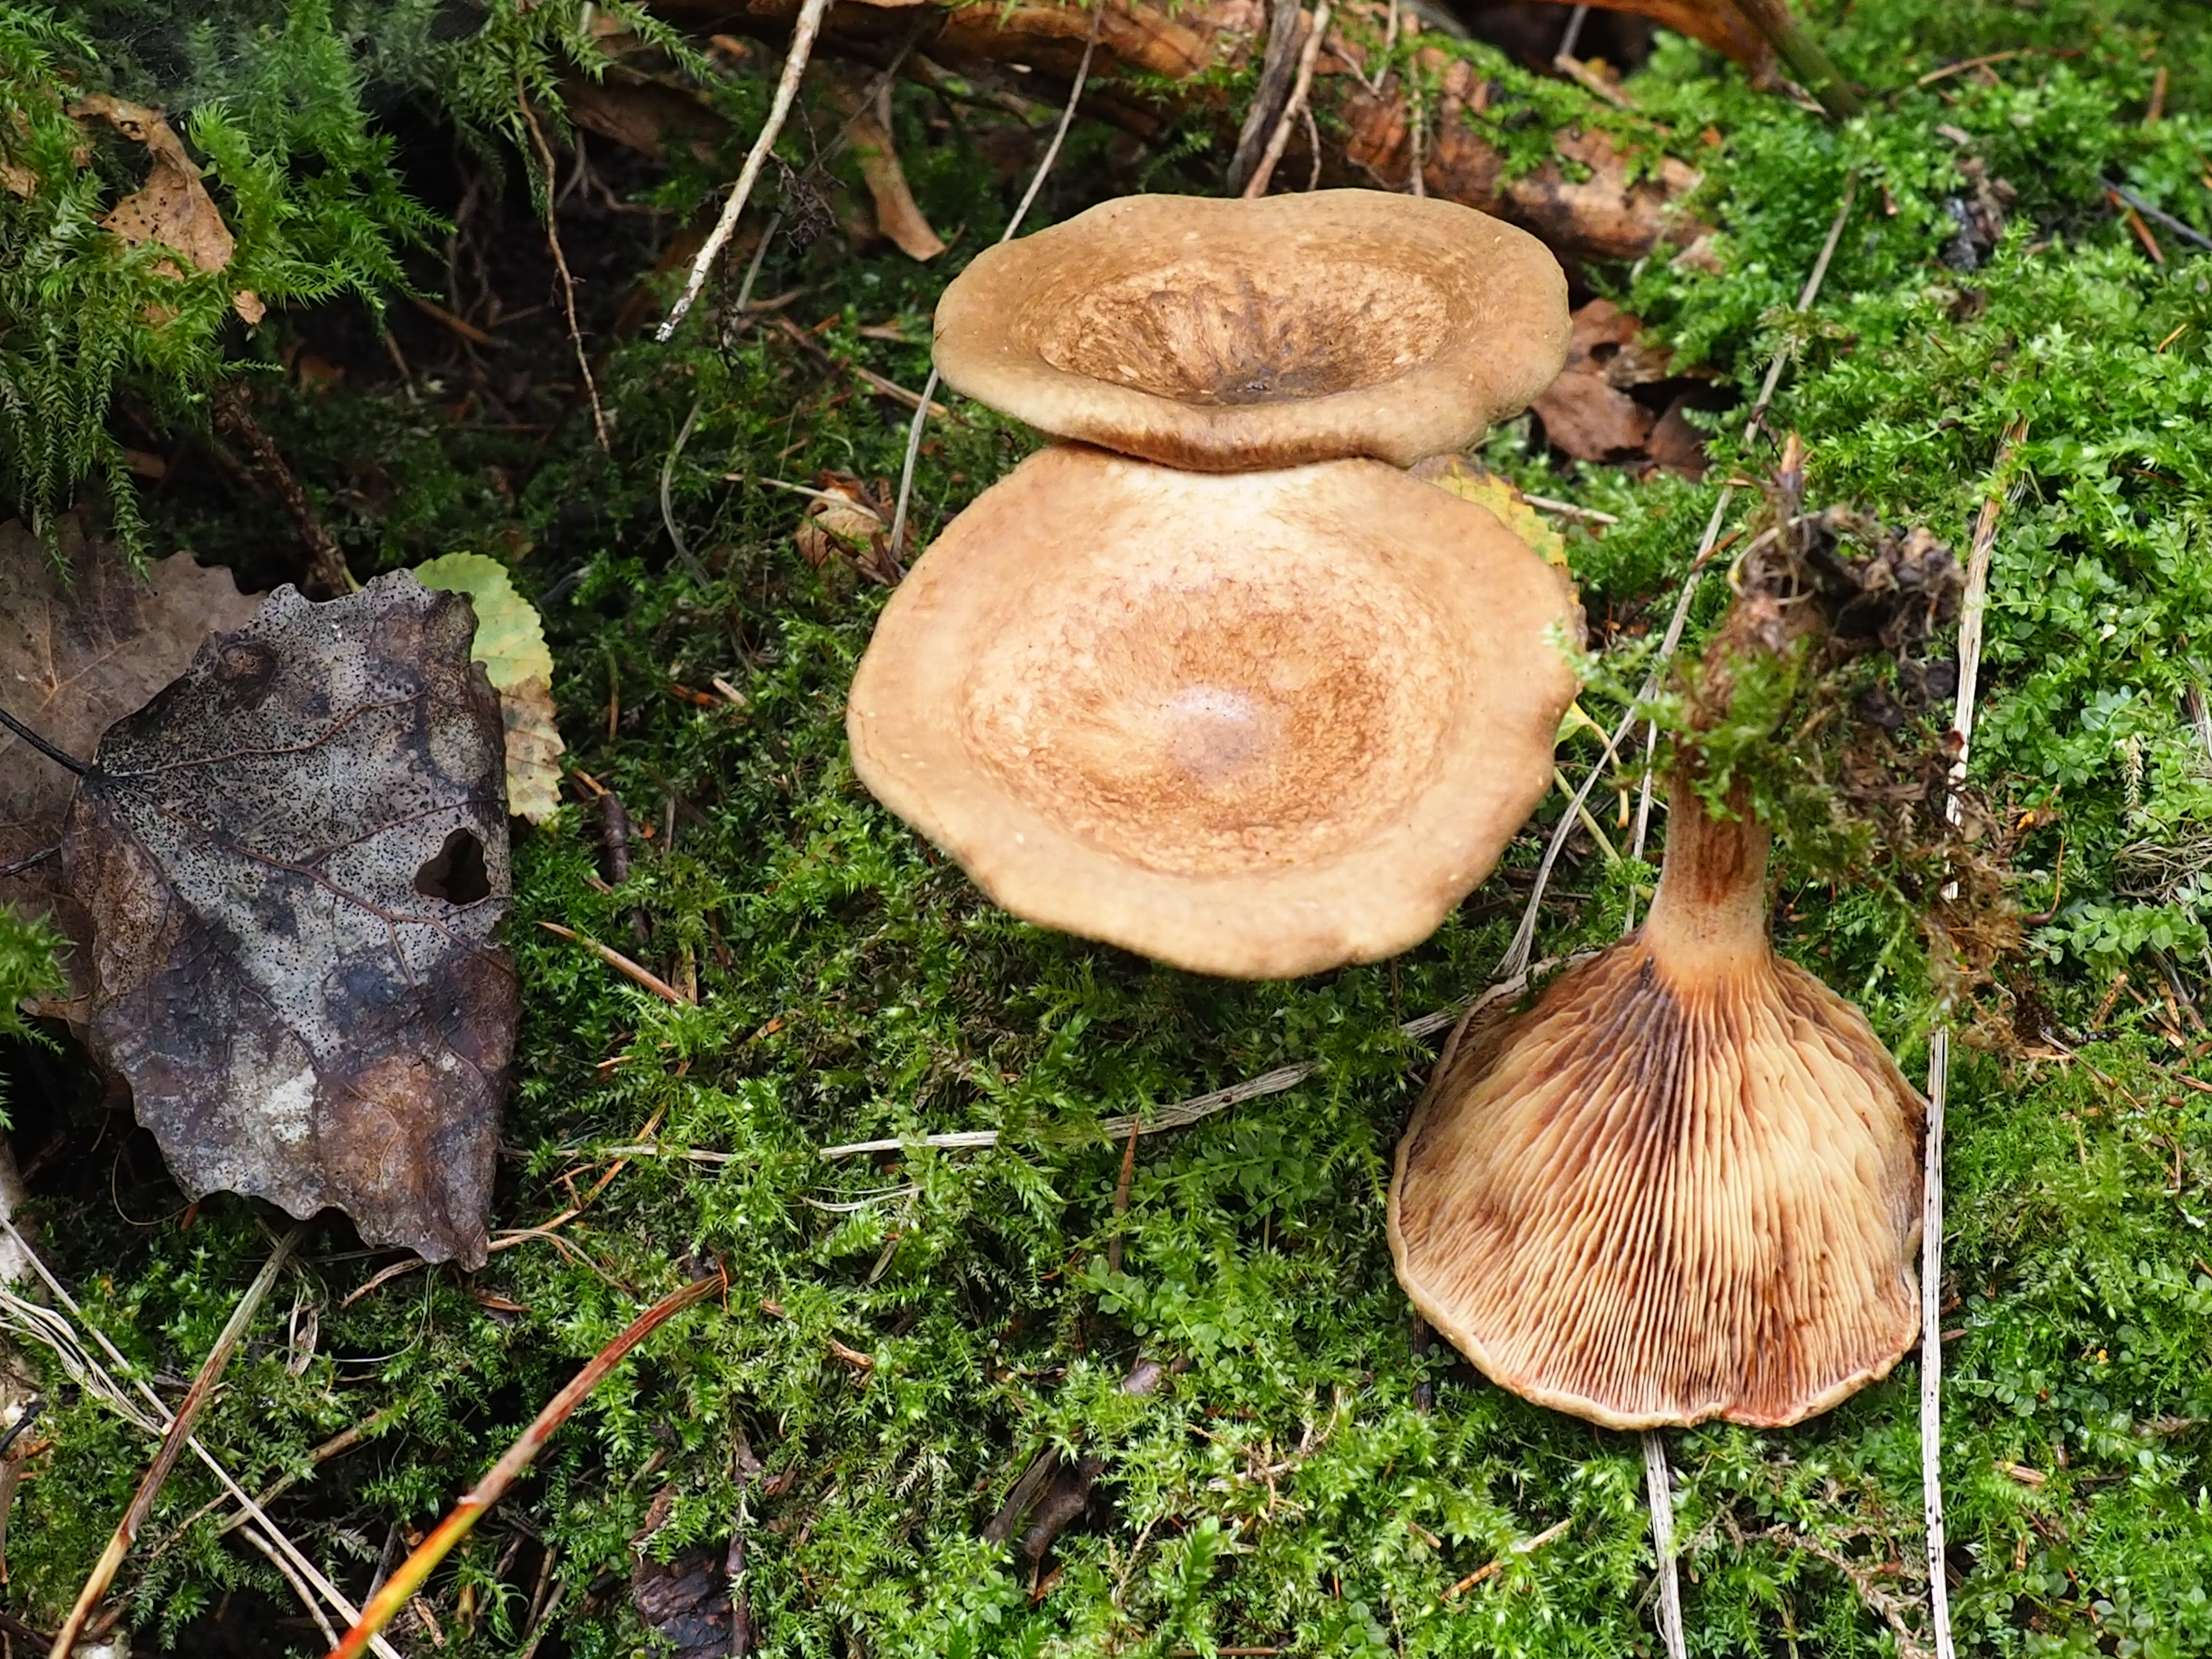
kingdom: Fungi
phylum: Basidiomycota
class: Agaricomycetes
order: Boletales
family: Paxillaceae
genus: Paxillus
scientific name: Paxillus rubicundulus
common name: Alder rollrim
